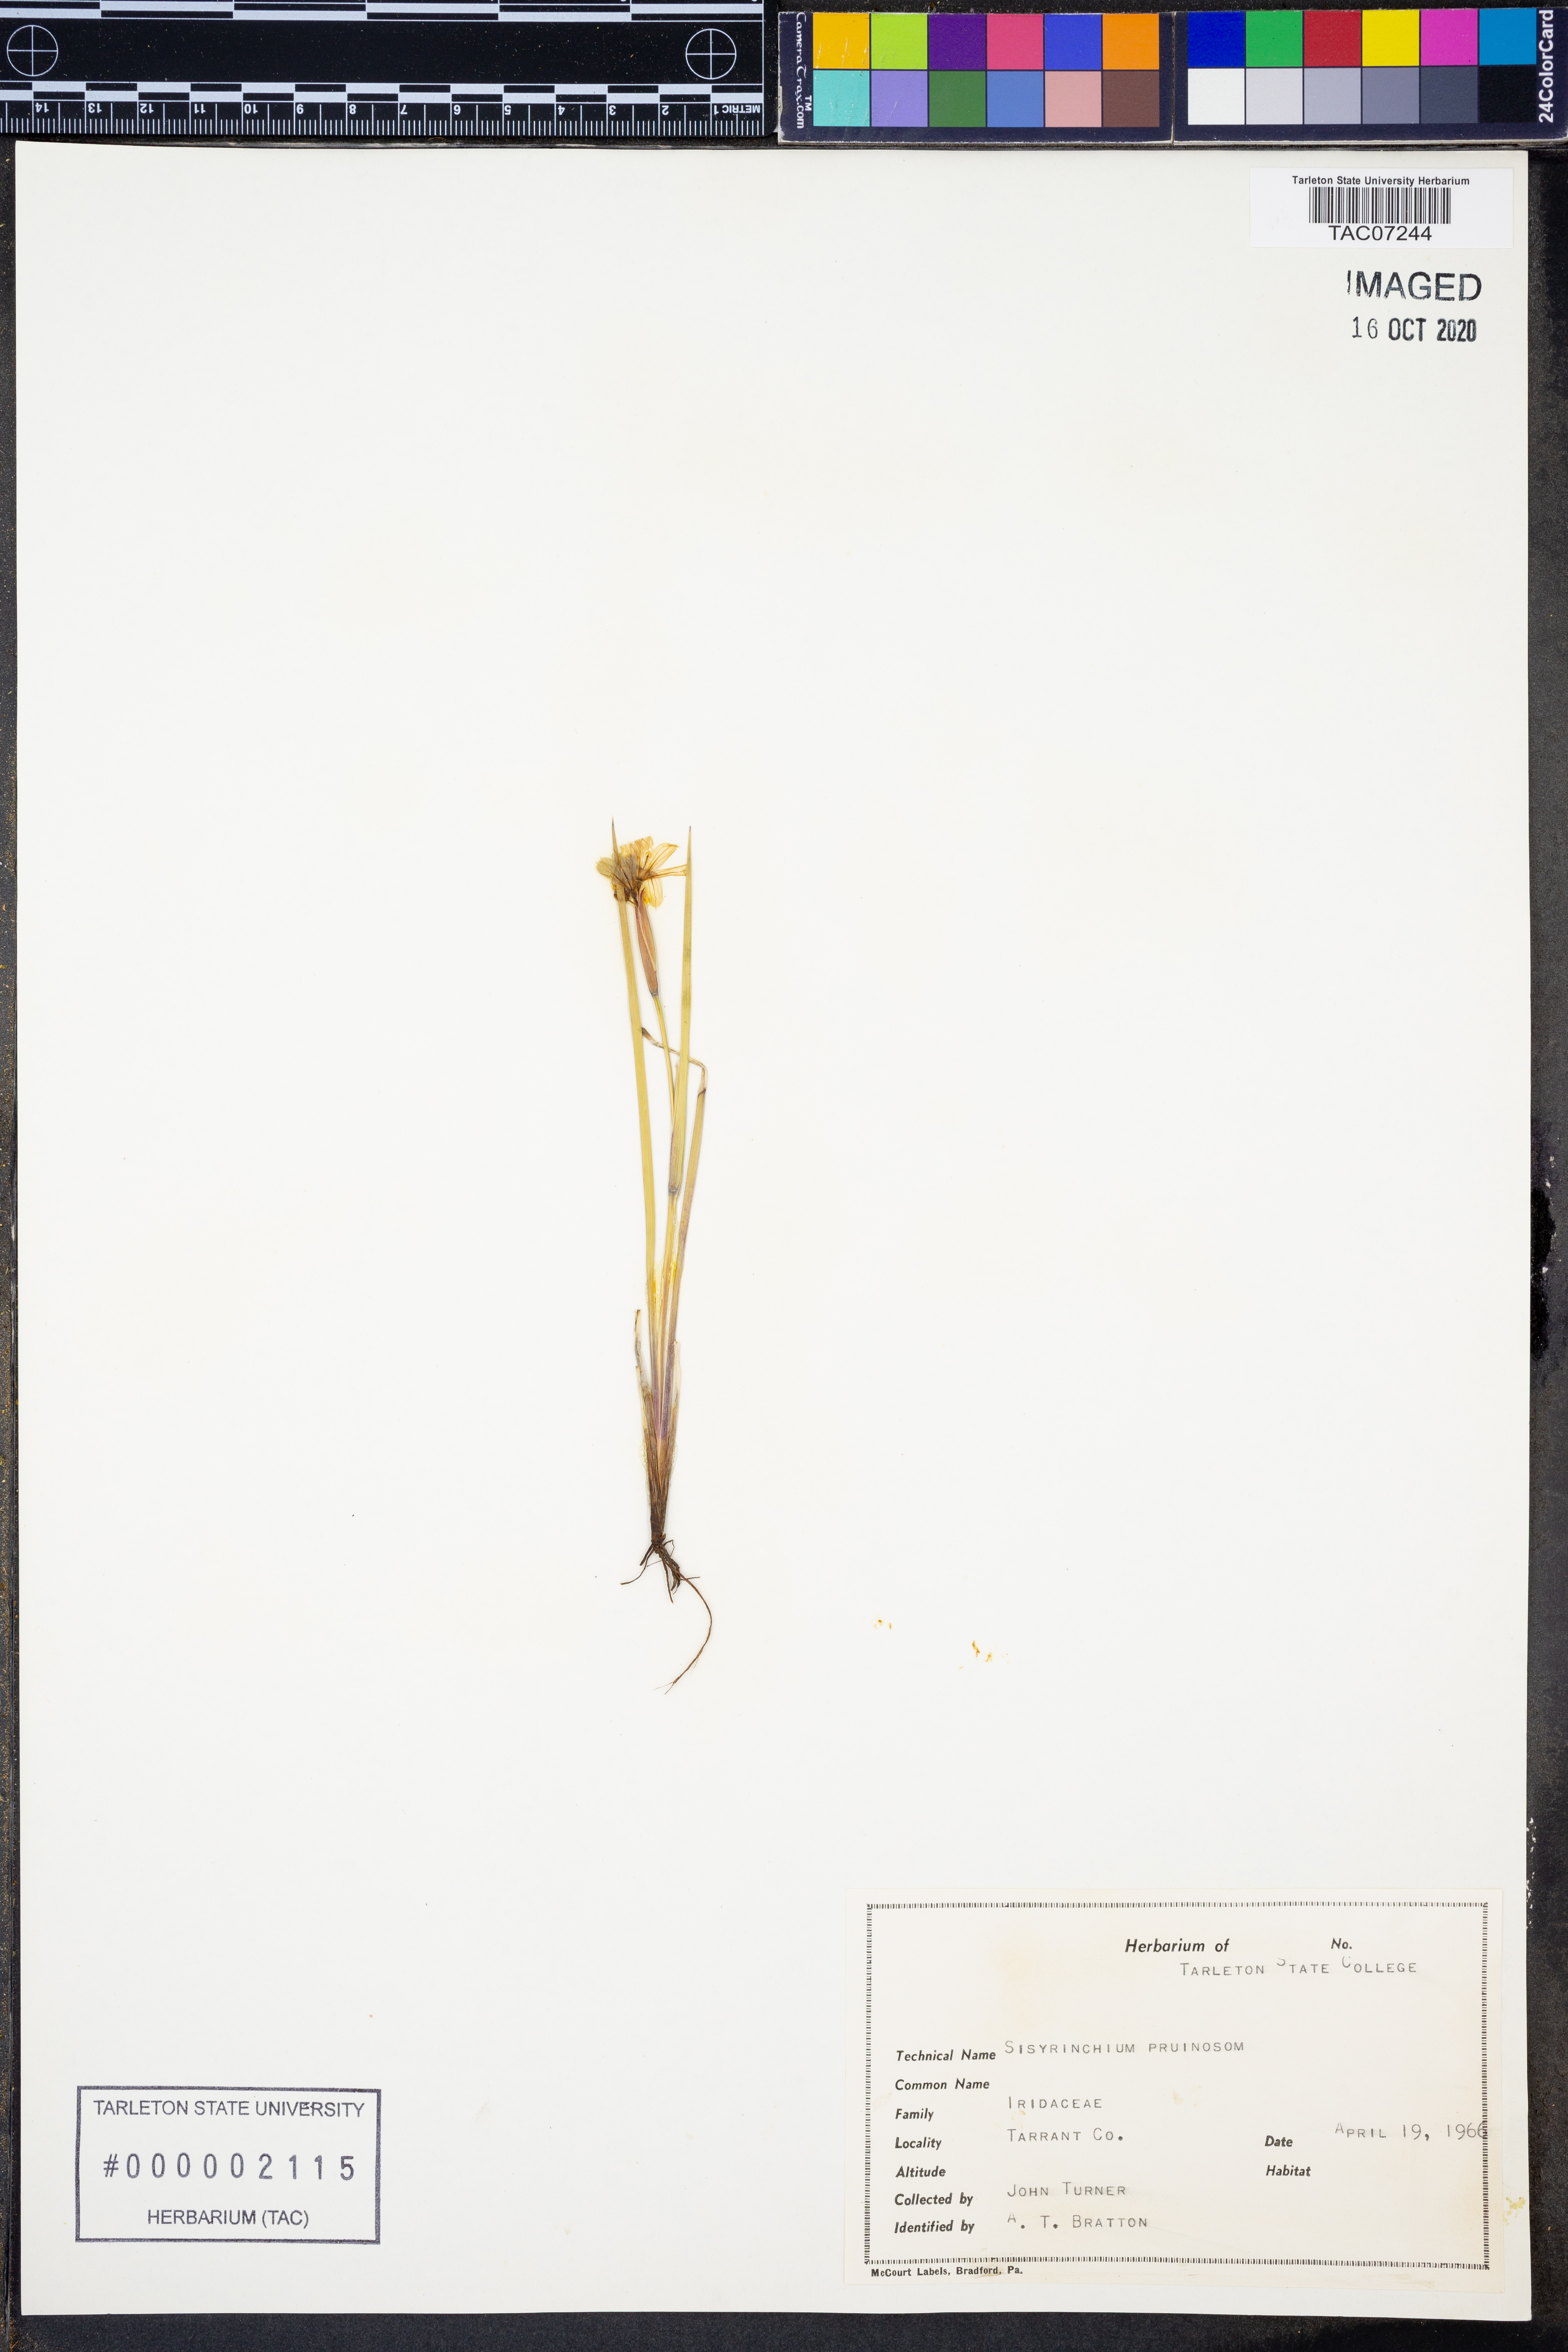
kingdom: Plantae
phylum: Tracheophyta
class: Liliopsida
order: Asparagales
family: Iridaceae
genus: Sisyrinchium
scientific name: Sisyrinchium pruinosum
